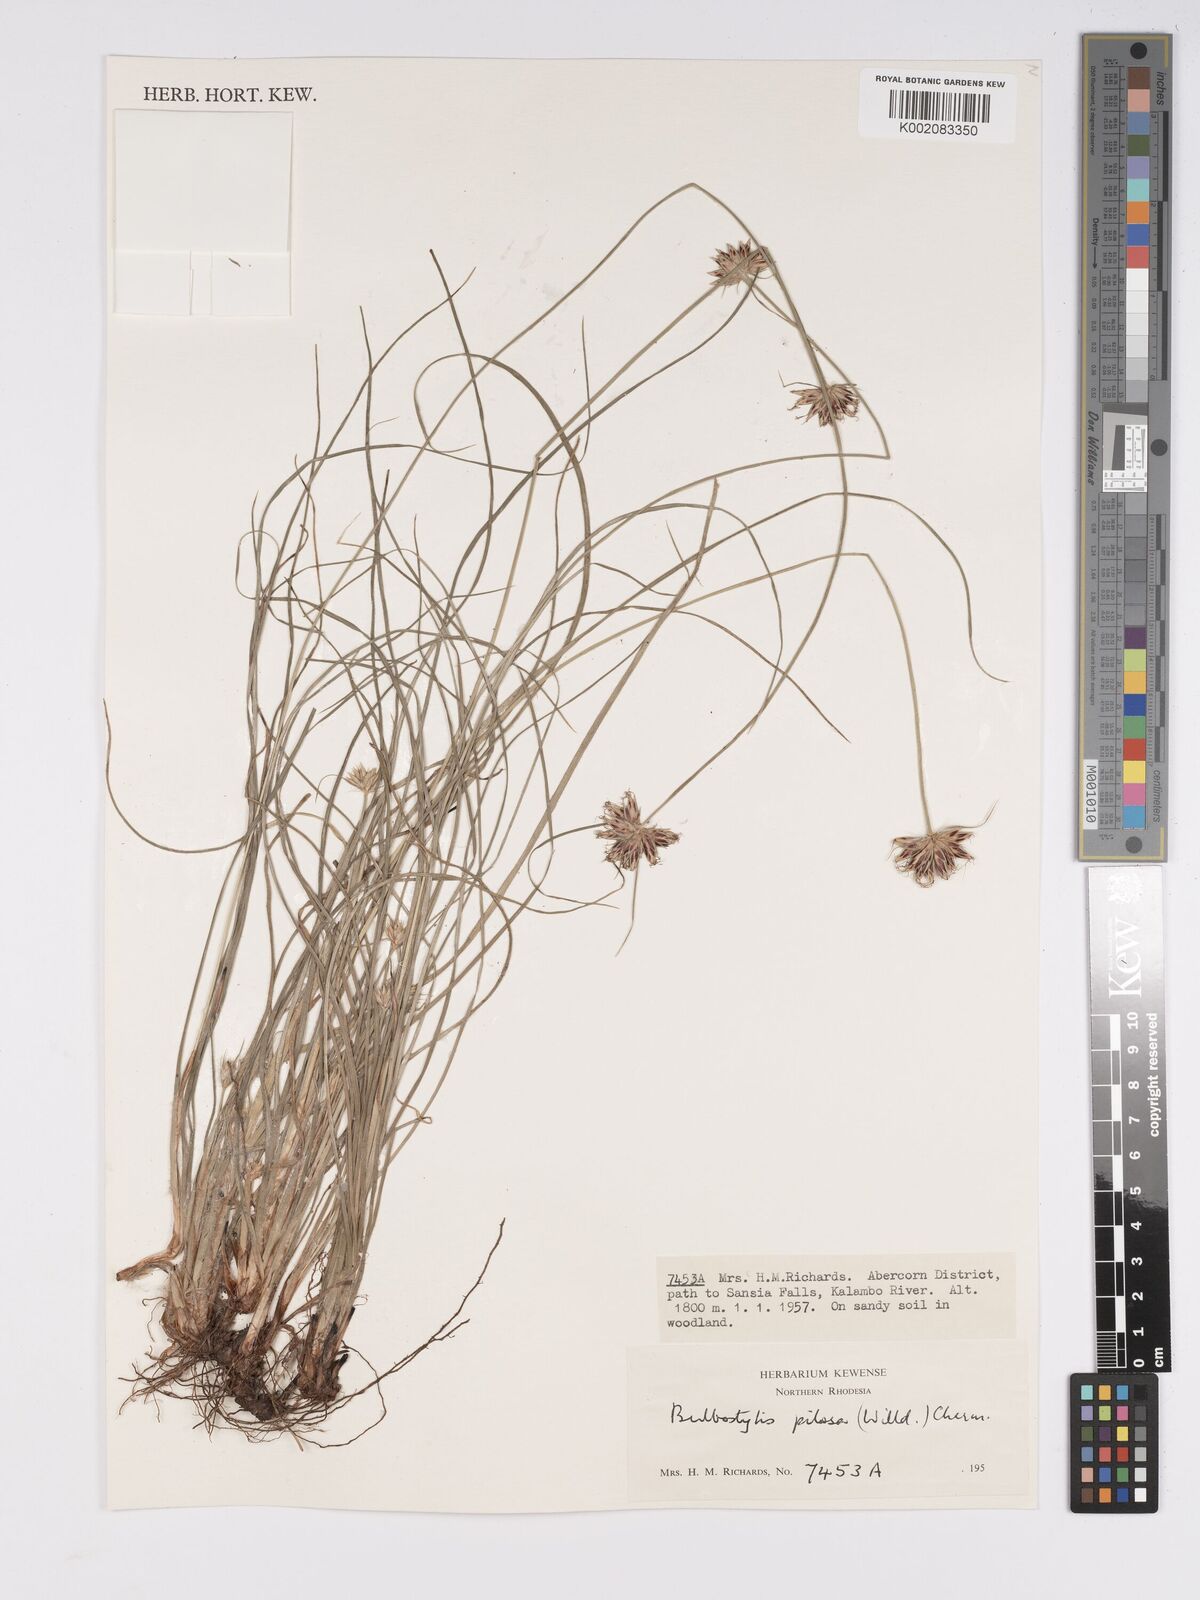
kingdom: Plantae
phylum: Tracheophyta
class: Liliopsida
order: Poales
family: Cyperaceae
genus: Bulbostylis
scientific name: Bulbostylis pilosa
